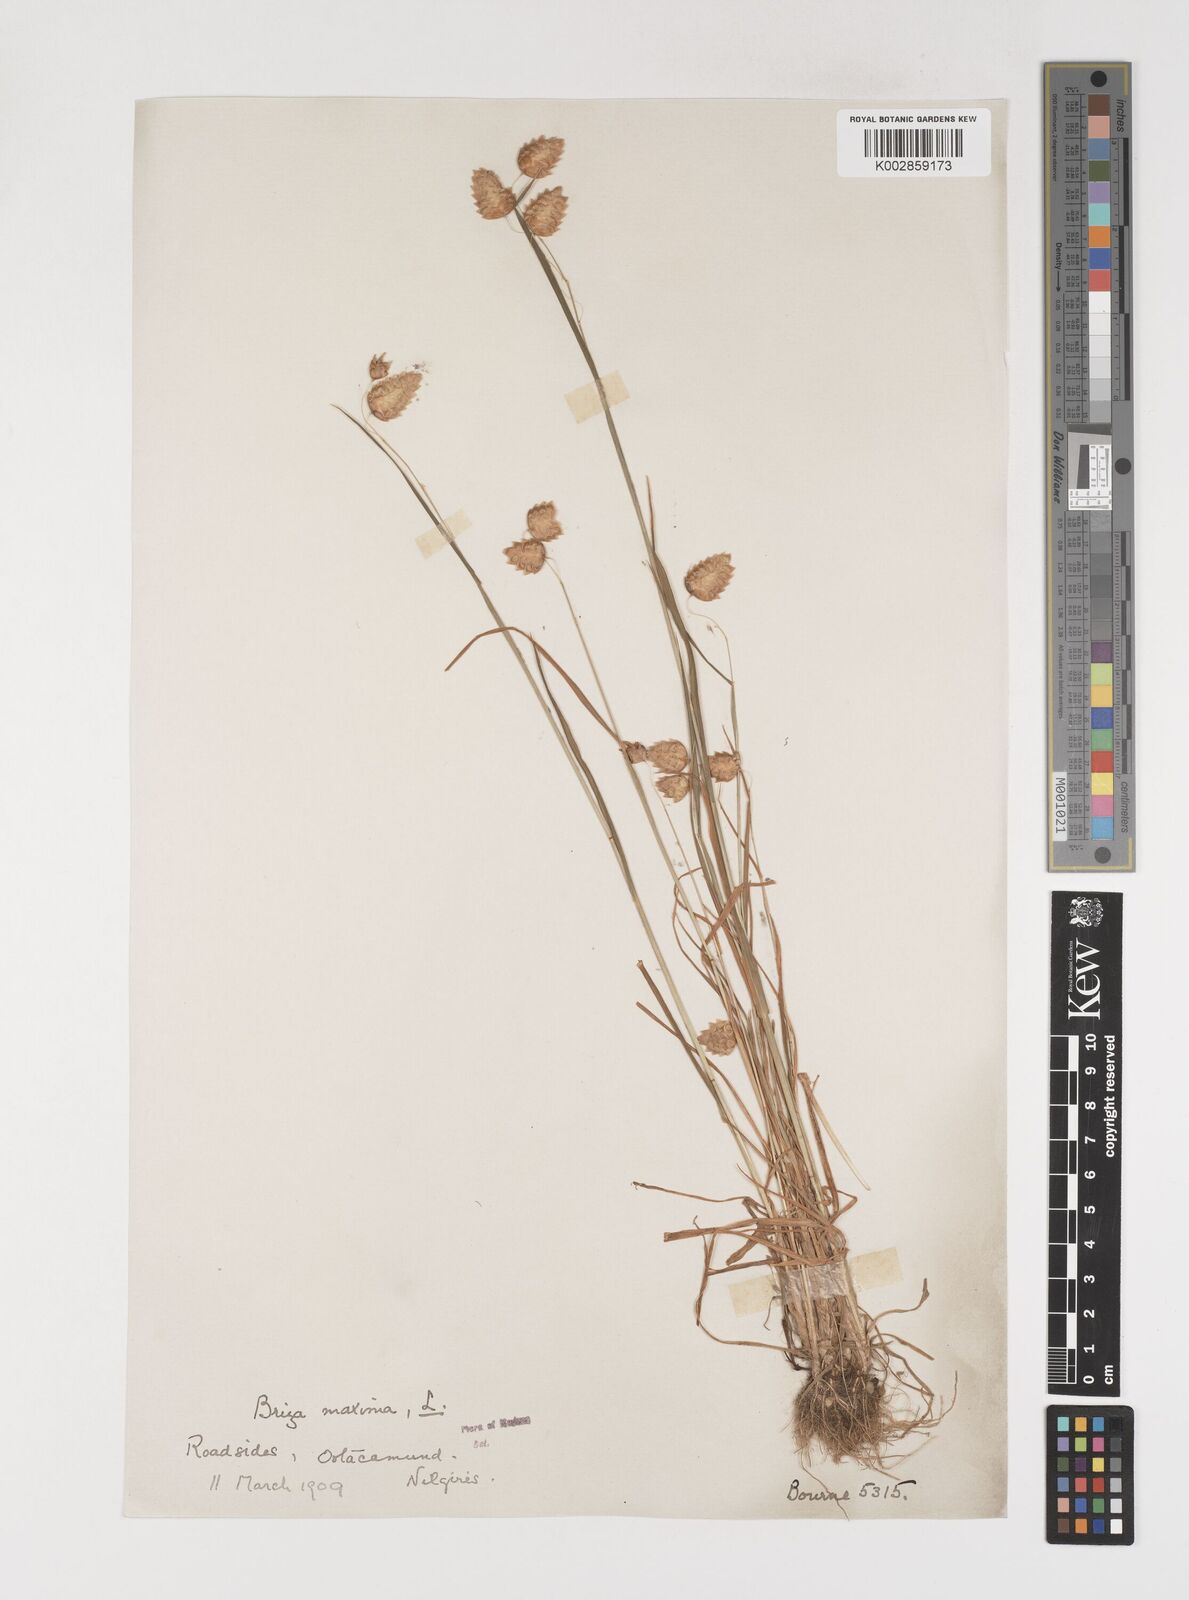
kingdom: Plantae
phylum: Tracheophyta
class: Liliopsida
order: Poales
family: Poaceae
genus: Briza
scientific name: Briza maxima
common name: Big quakinggrass
